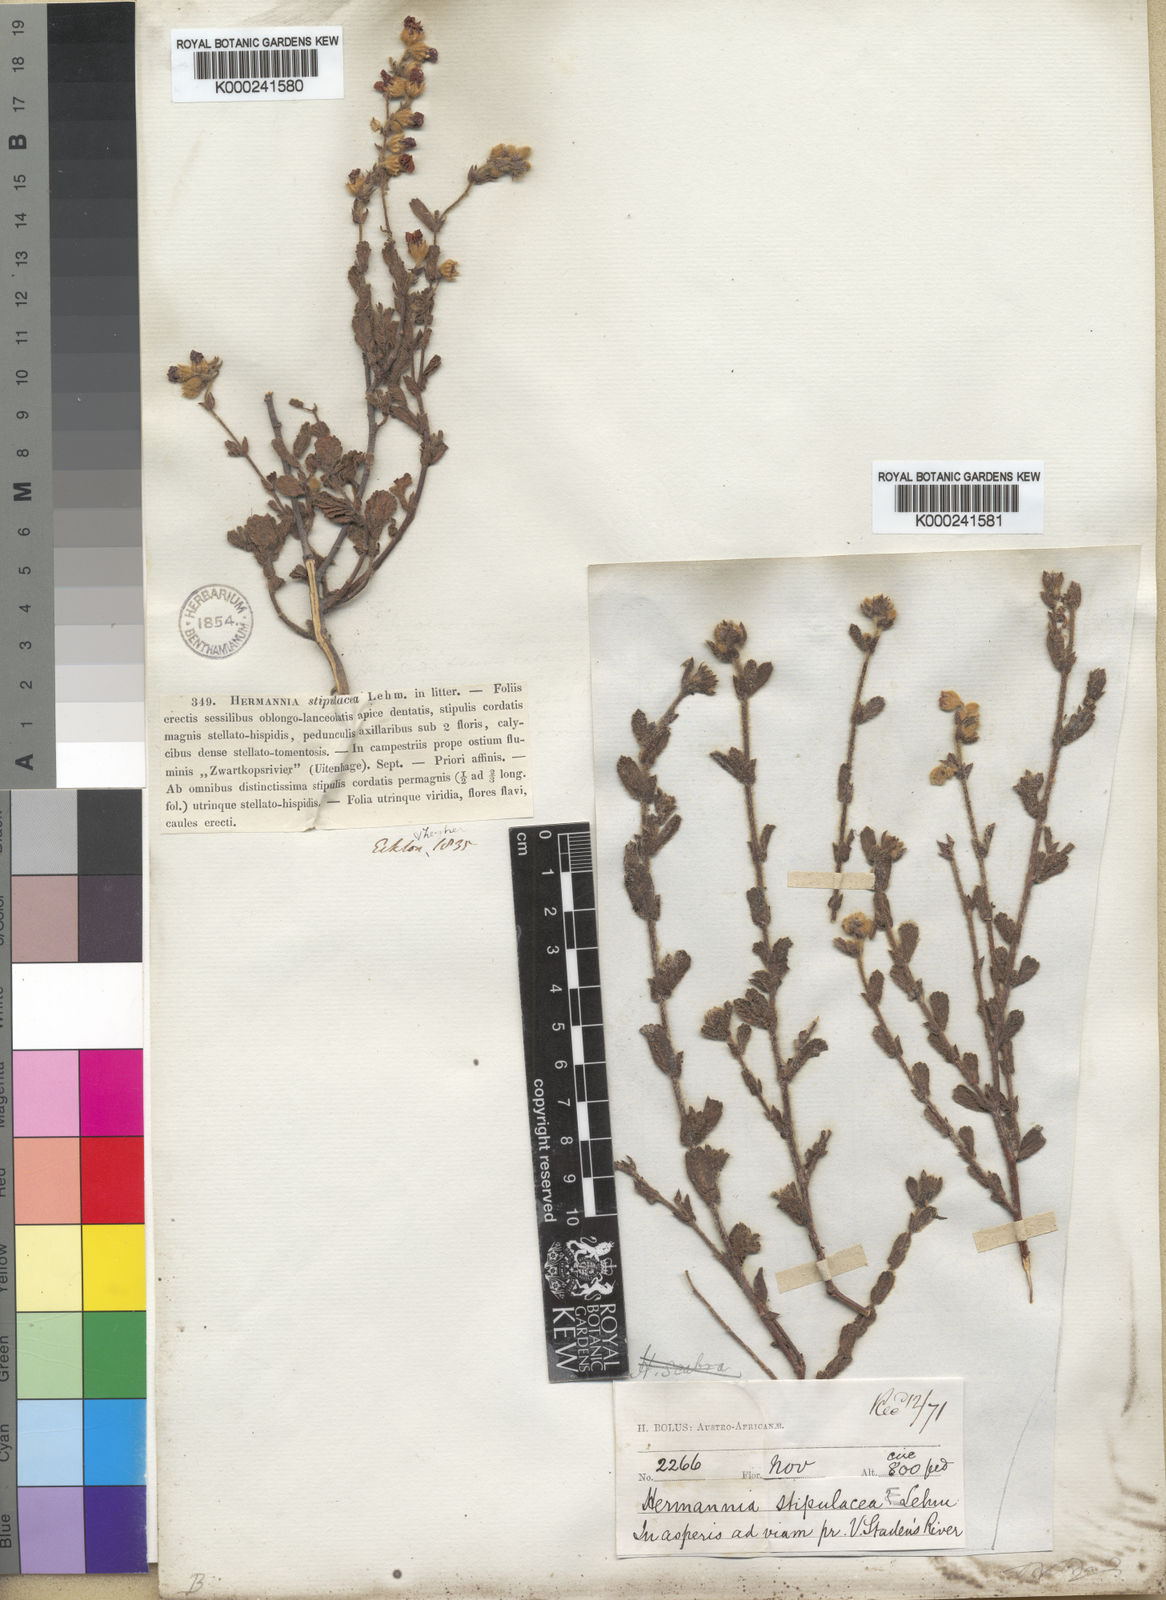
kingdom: Plantae
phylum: Tracheophyta
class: Magnoliopsida
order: Malvales
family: Malvaceae
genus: Hermannia
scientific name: Hermannia stipulacea
